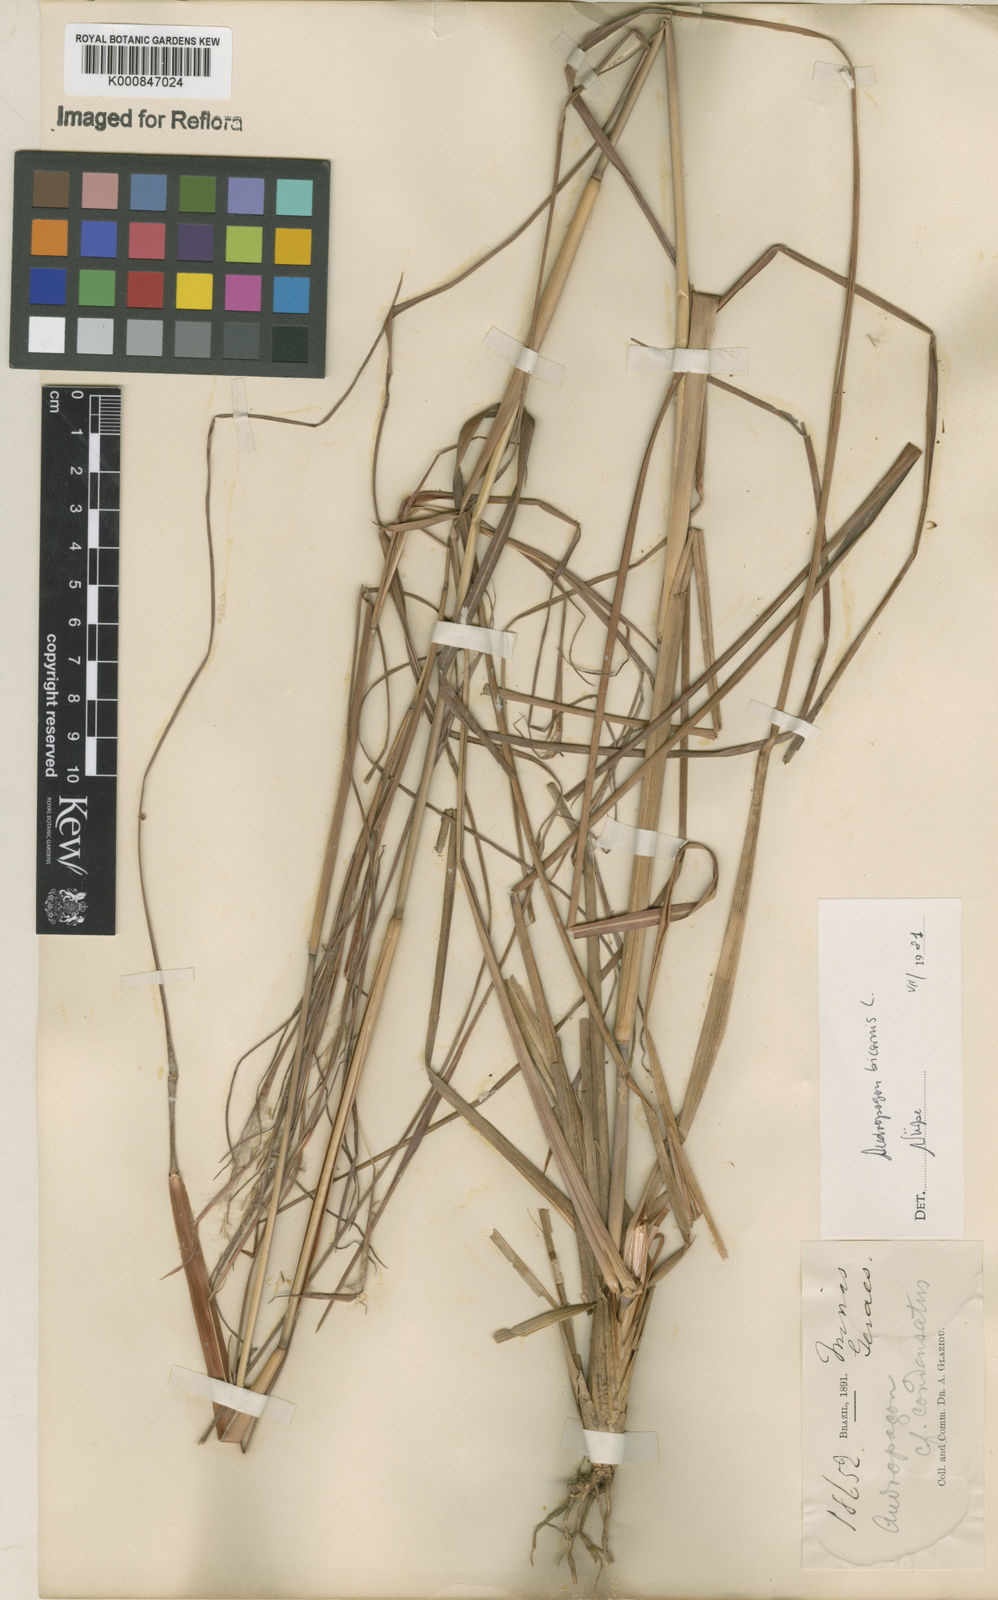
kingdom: Plantae
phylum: Tracheophyta
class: Liliopsida
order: Poales
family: Poaceae
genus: Andropogon
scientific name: Andropogon
